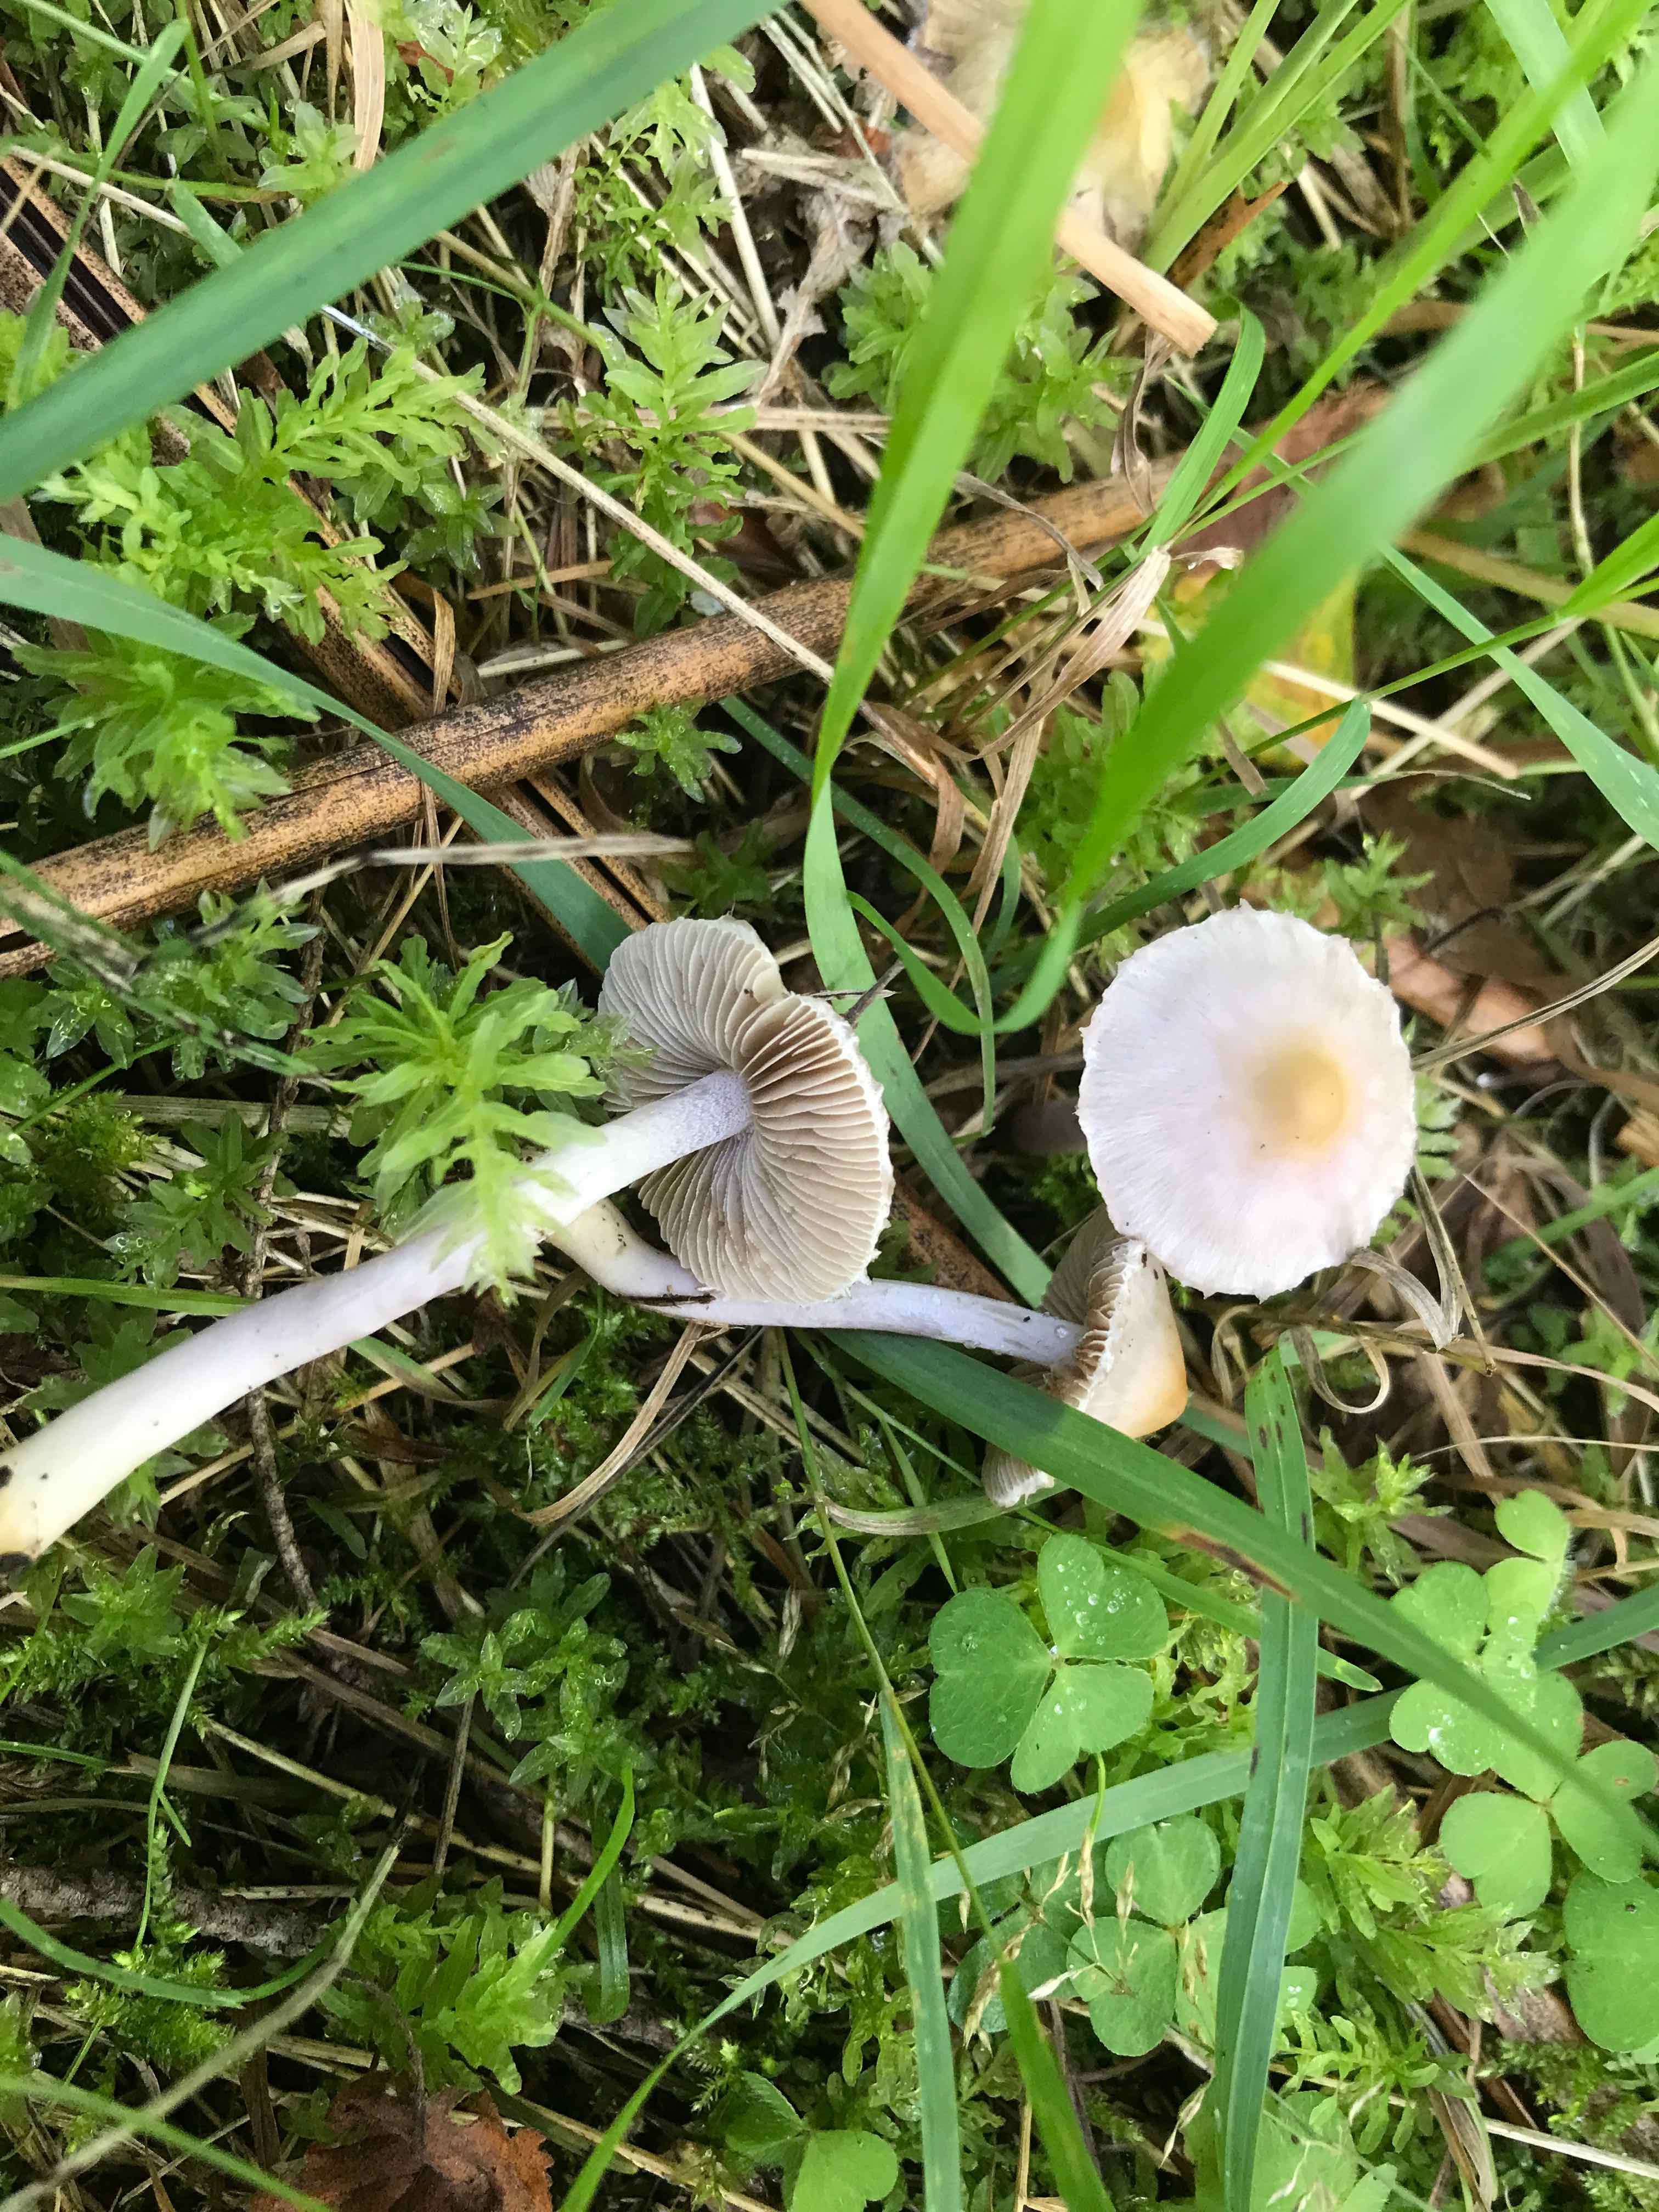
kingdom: Fungi
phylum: Basidiomycota
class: Agaricomycetes
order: Agaricales
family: Inocybaceae
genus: Inocybe
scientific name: Inocybe geophylla
